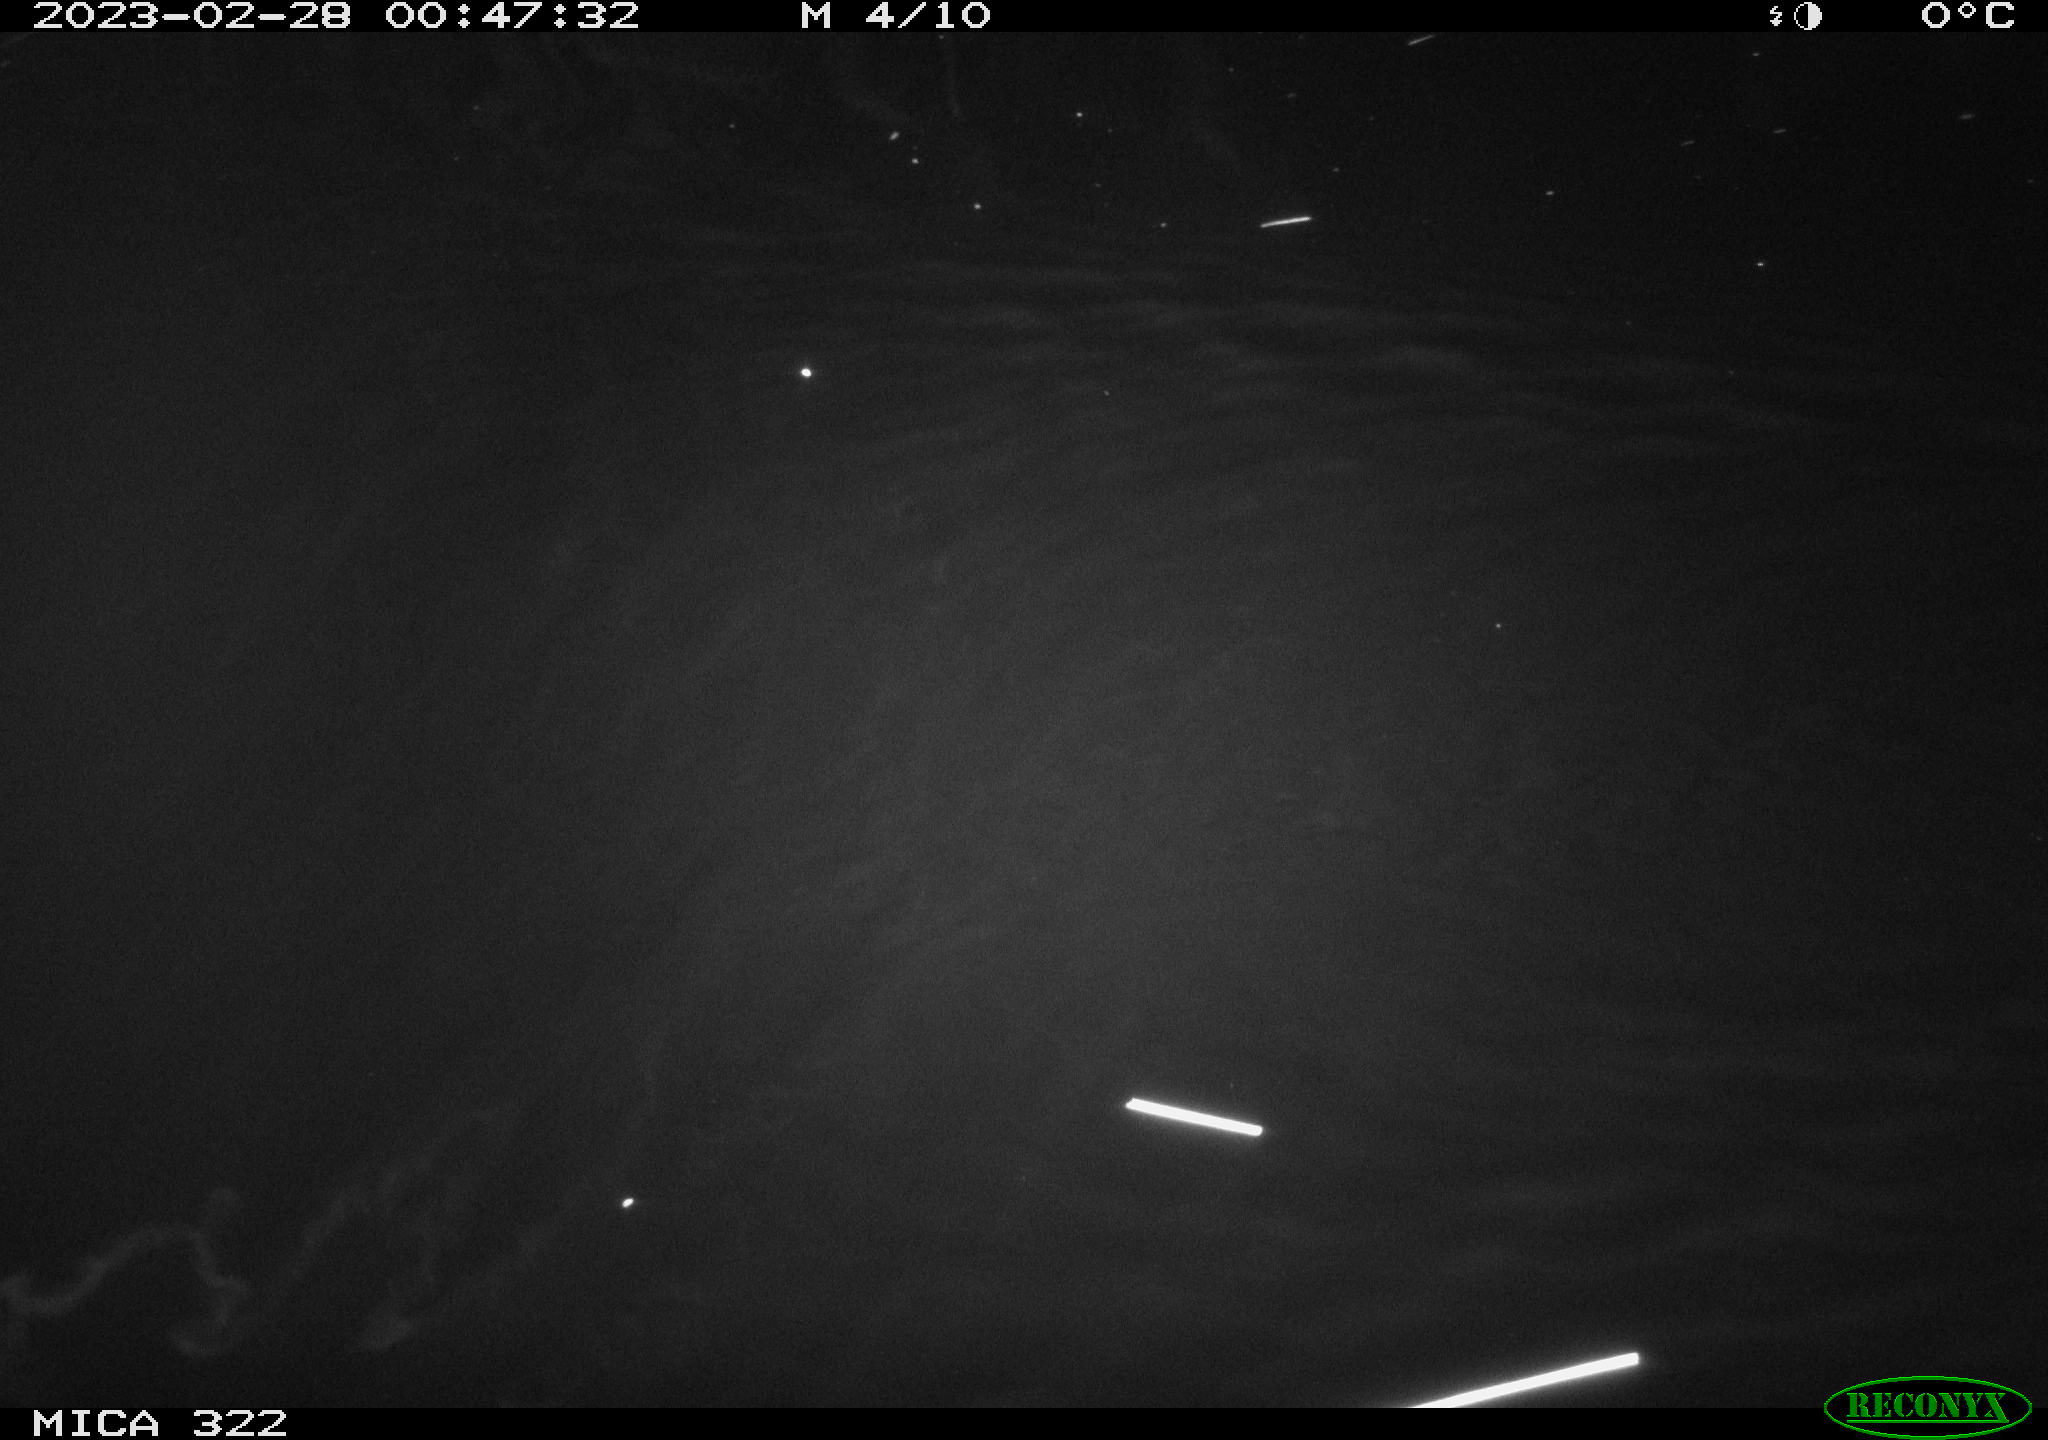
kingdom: Animalia
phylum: Chordata
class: Mammalia
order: Rodentia
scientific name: Rodentia
